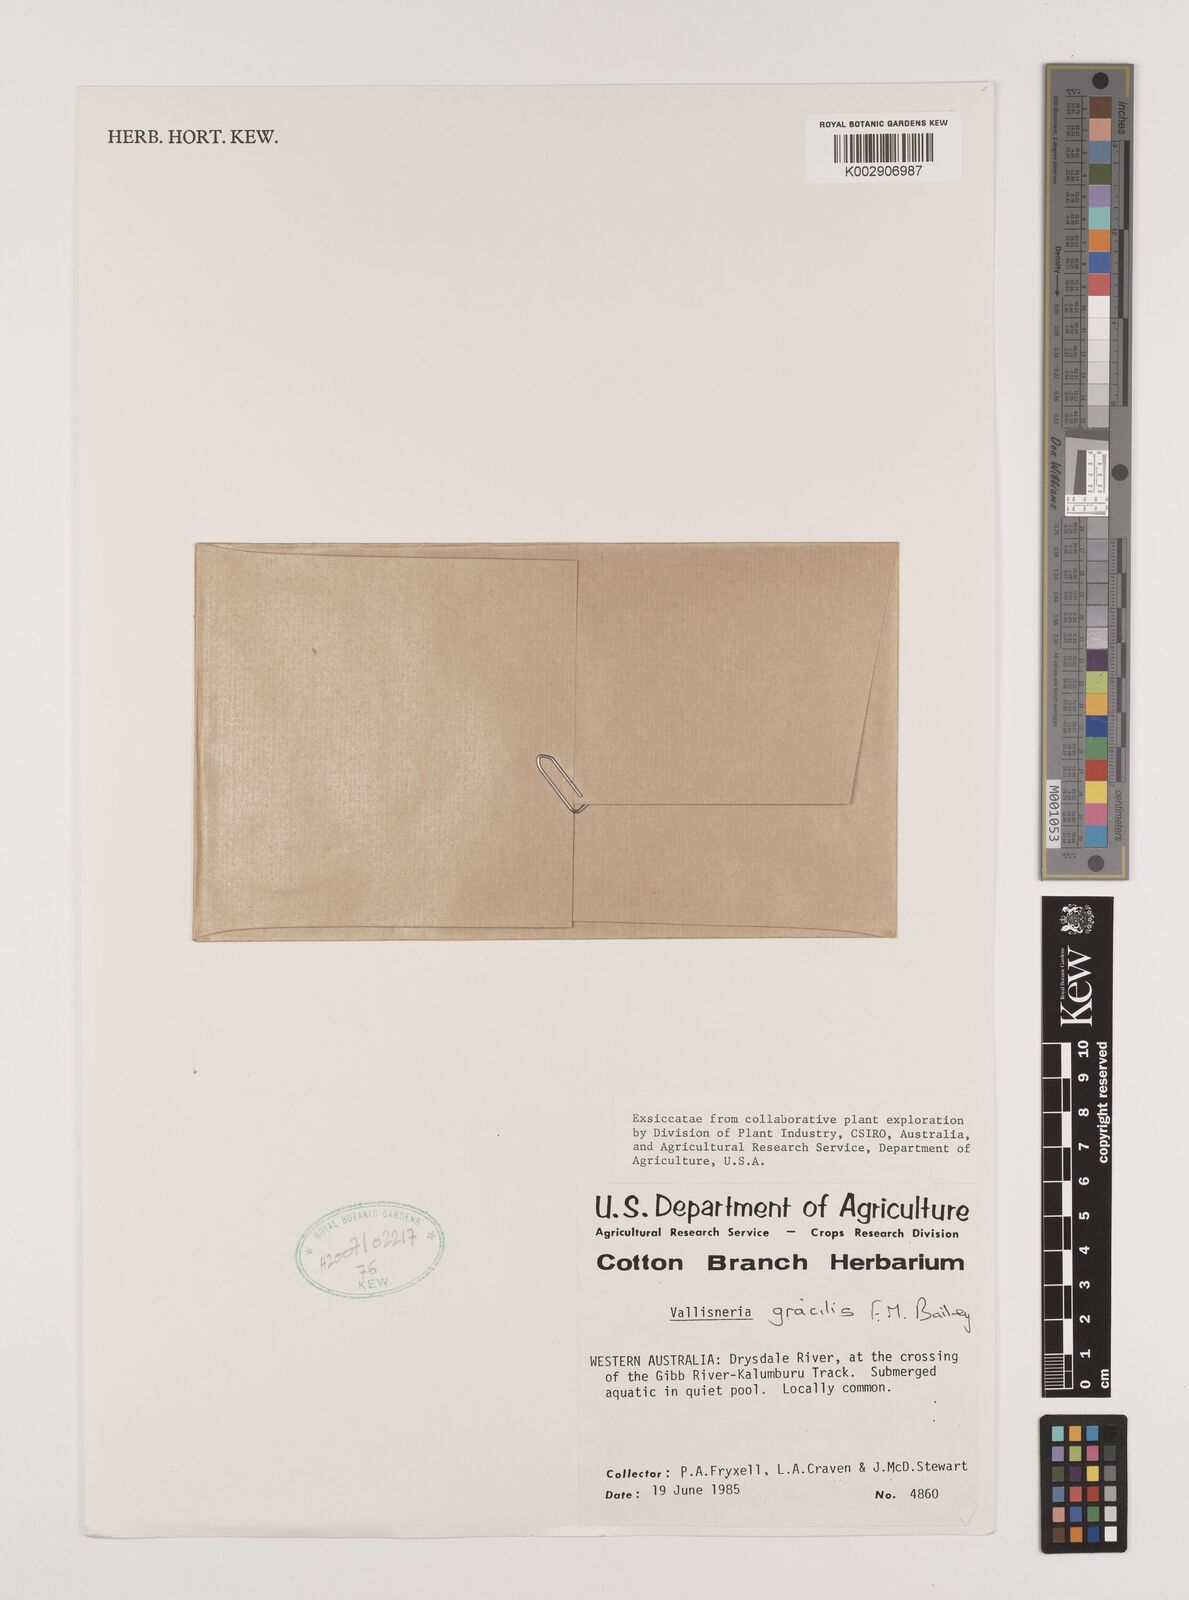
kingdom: Plantae
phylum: Tracheophyta
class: Liliopsida
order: Alismatales
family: Hydrocharitaceae
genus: Vallisneria
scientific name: Vallisneria nana
